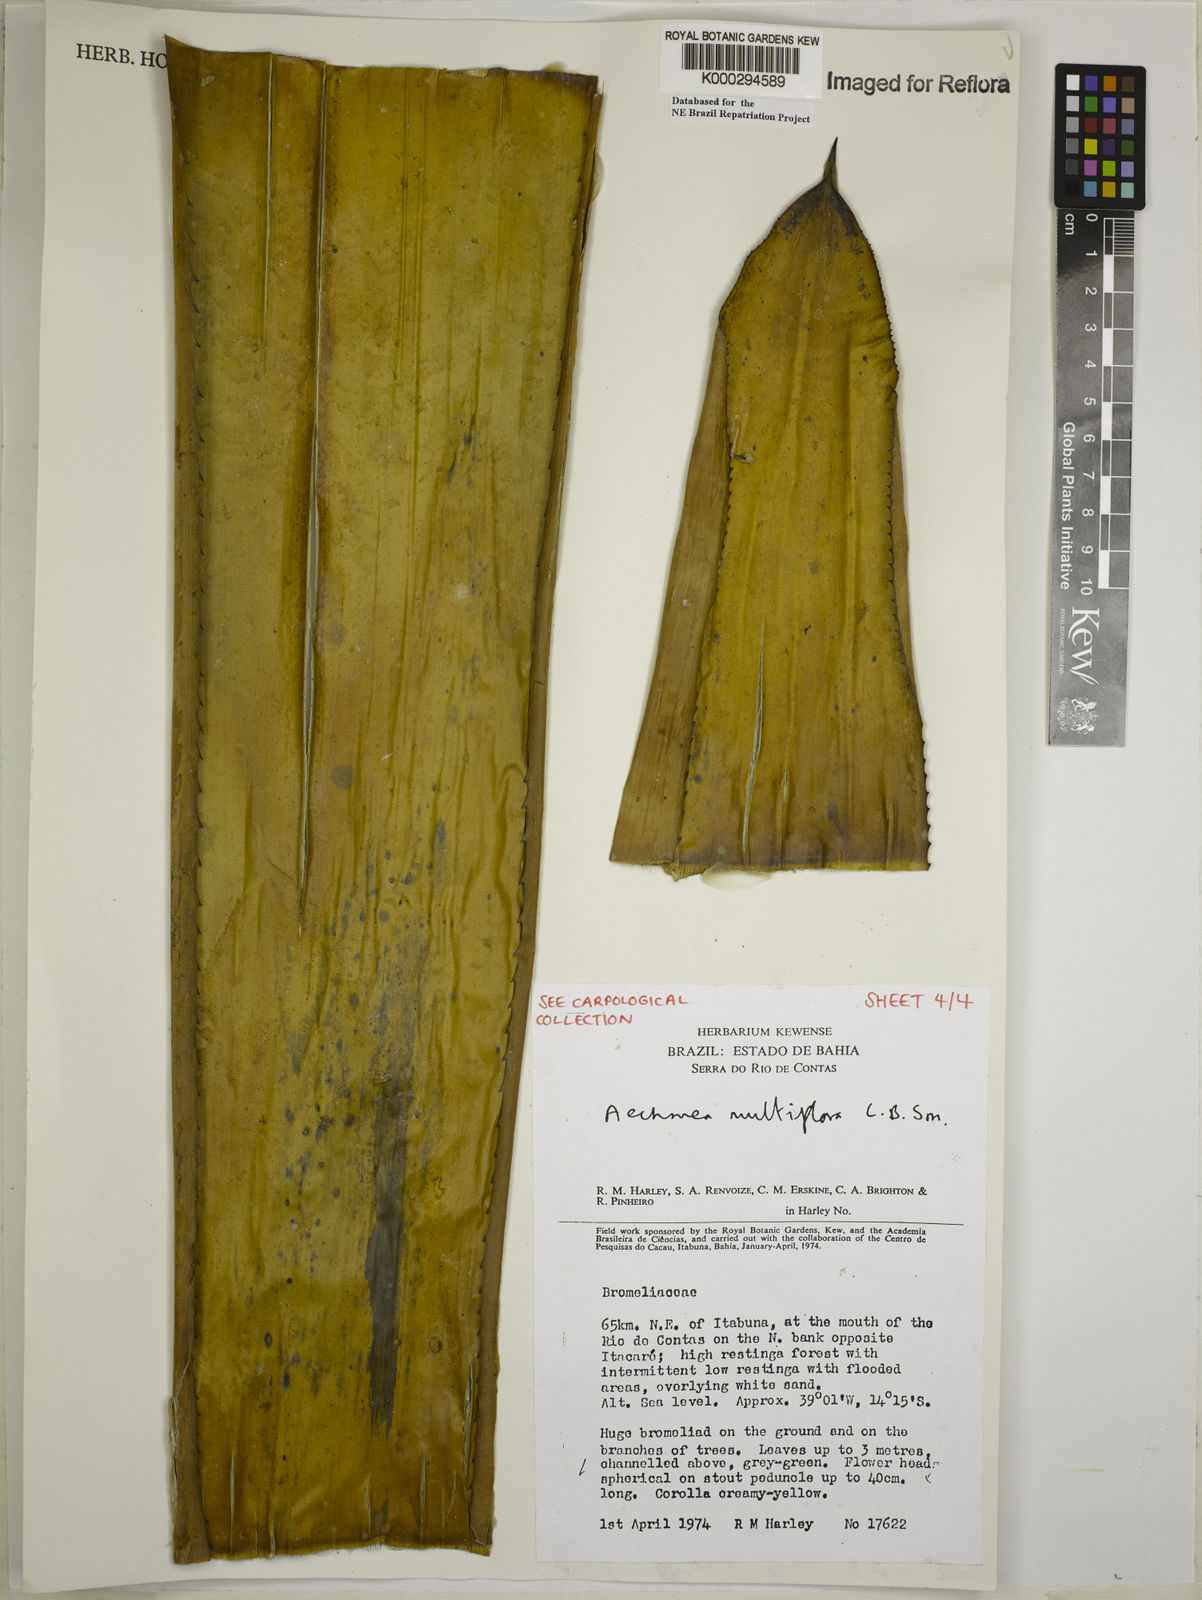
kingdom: Plantae
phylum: Tracheophyta
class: Liliopsida
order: Poales
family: Bromeliaceae
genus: Karawata
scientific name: Karawata multiflora
